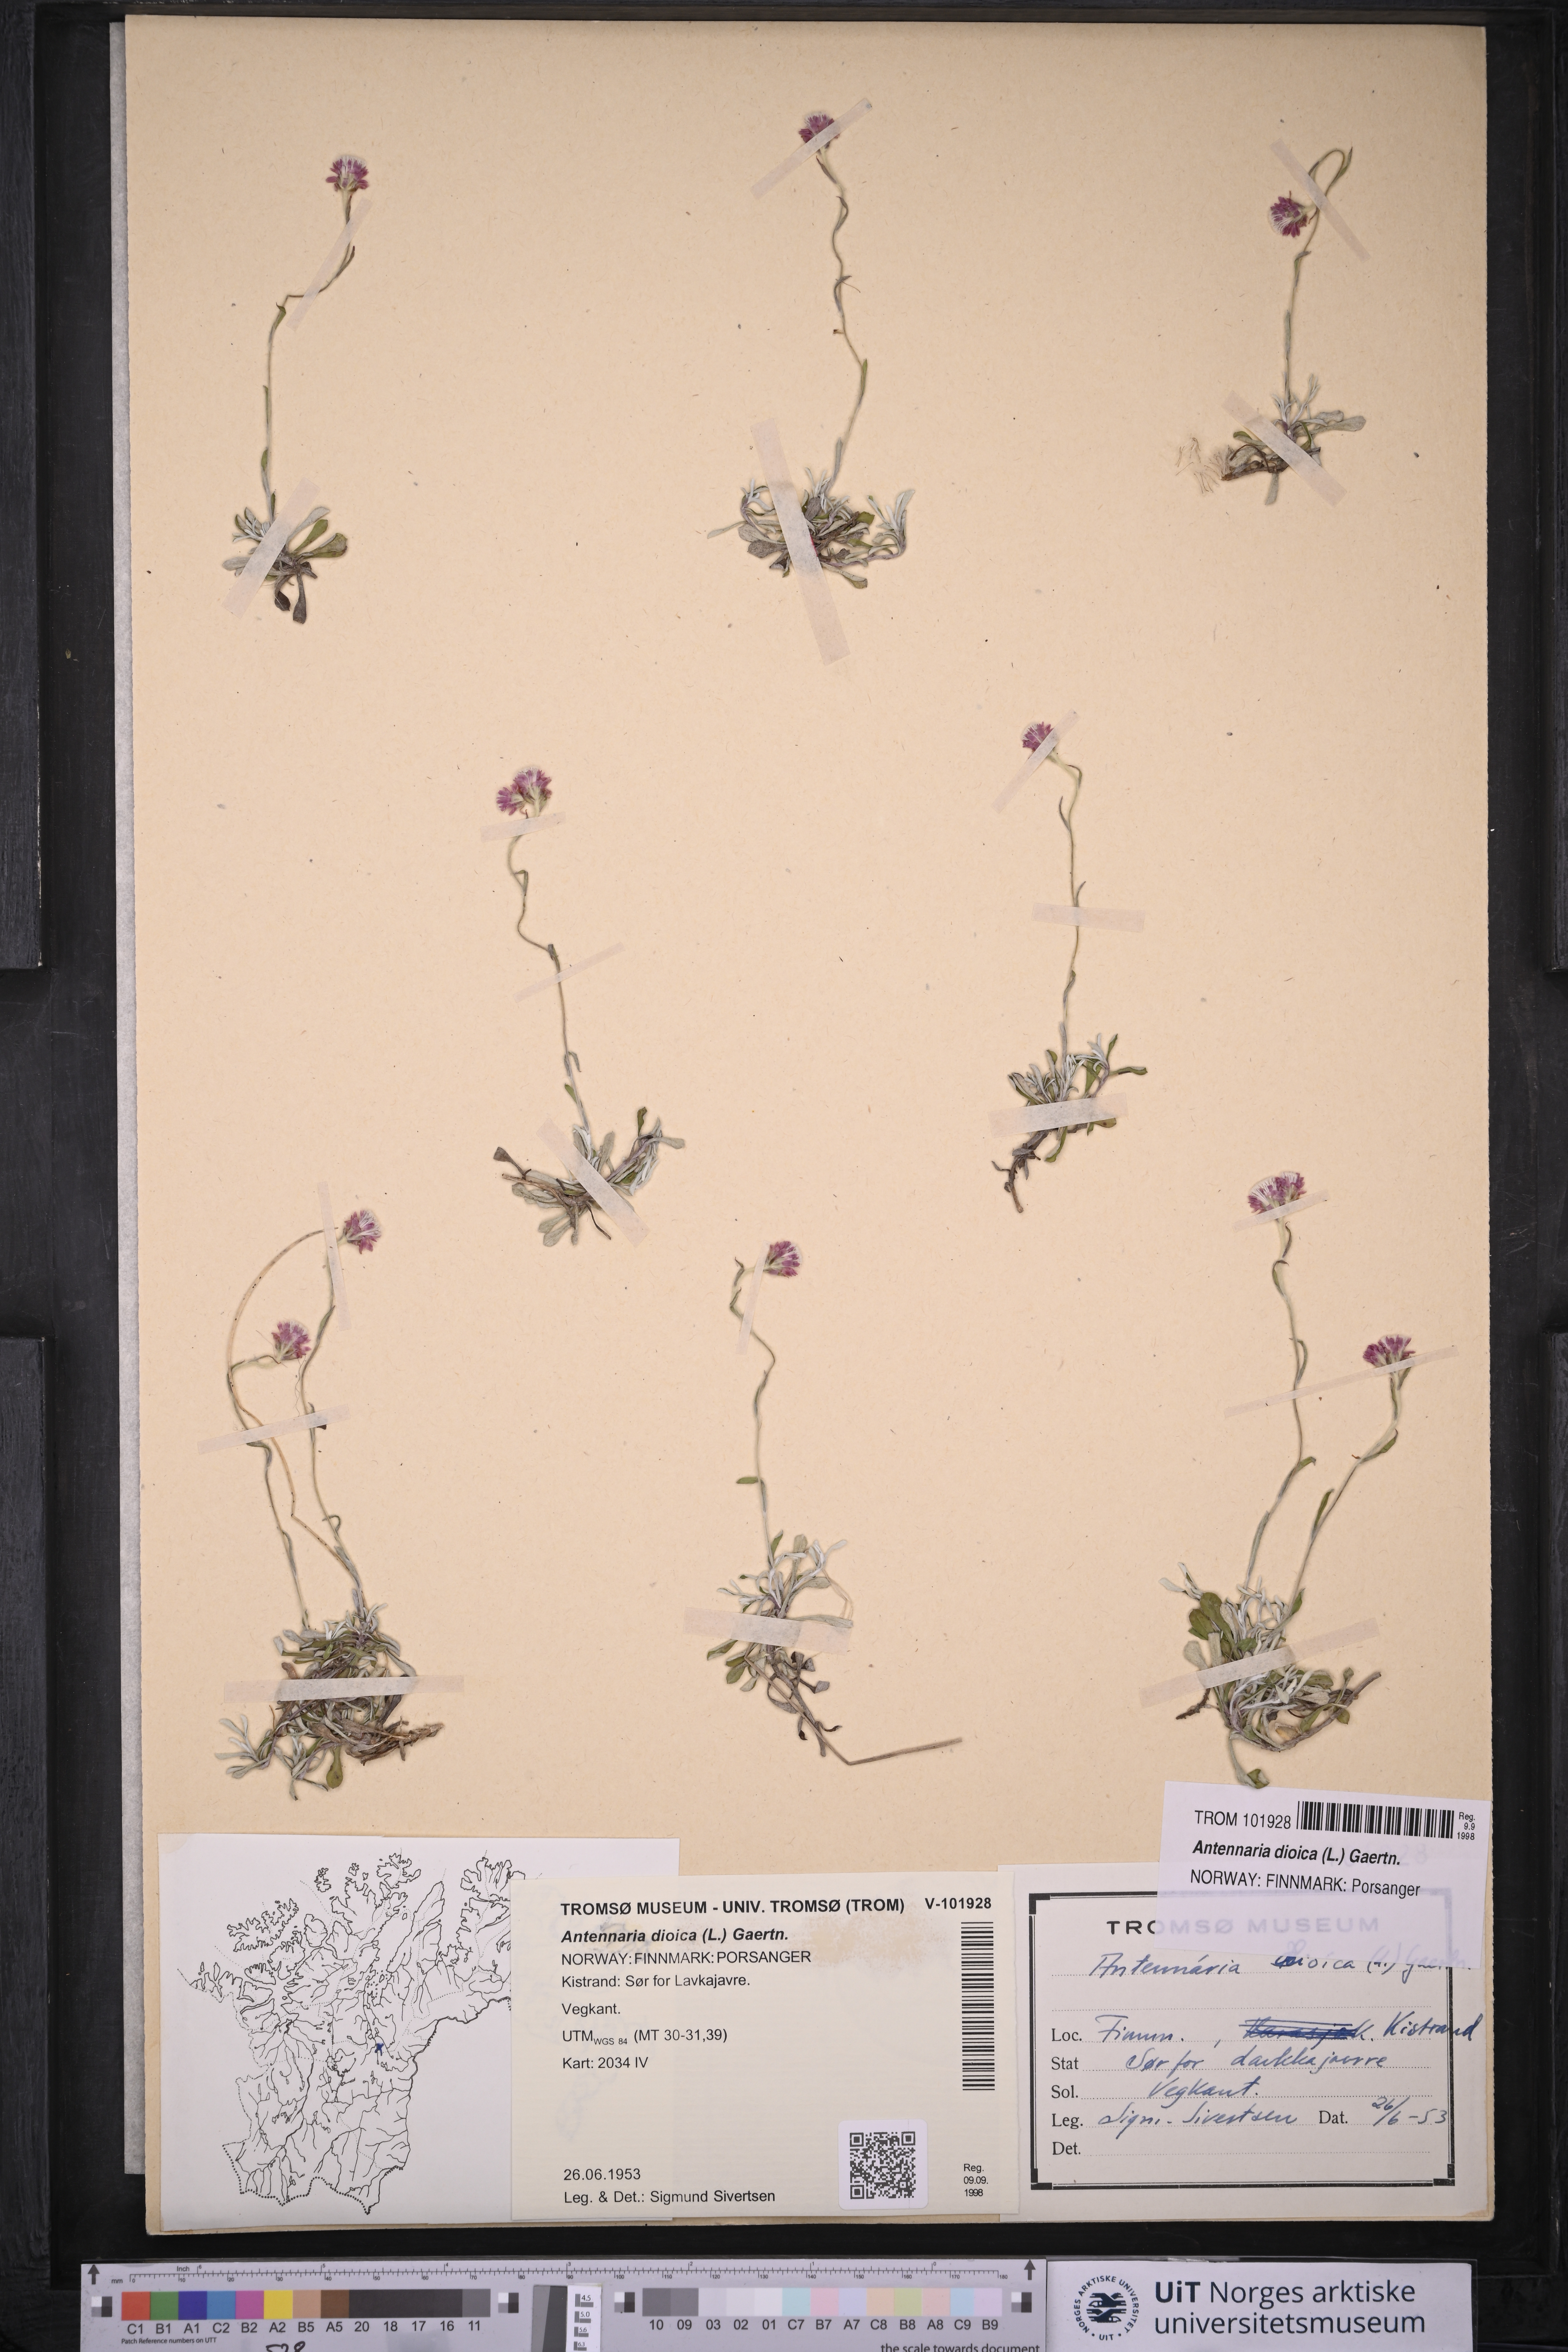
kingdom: Plantae
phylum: Tracheophyta
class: Magnoliopsida
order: Asterales
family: Asteraceae
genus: Antennaria
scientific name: Antennaria dioica
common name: Mountain everlasting
